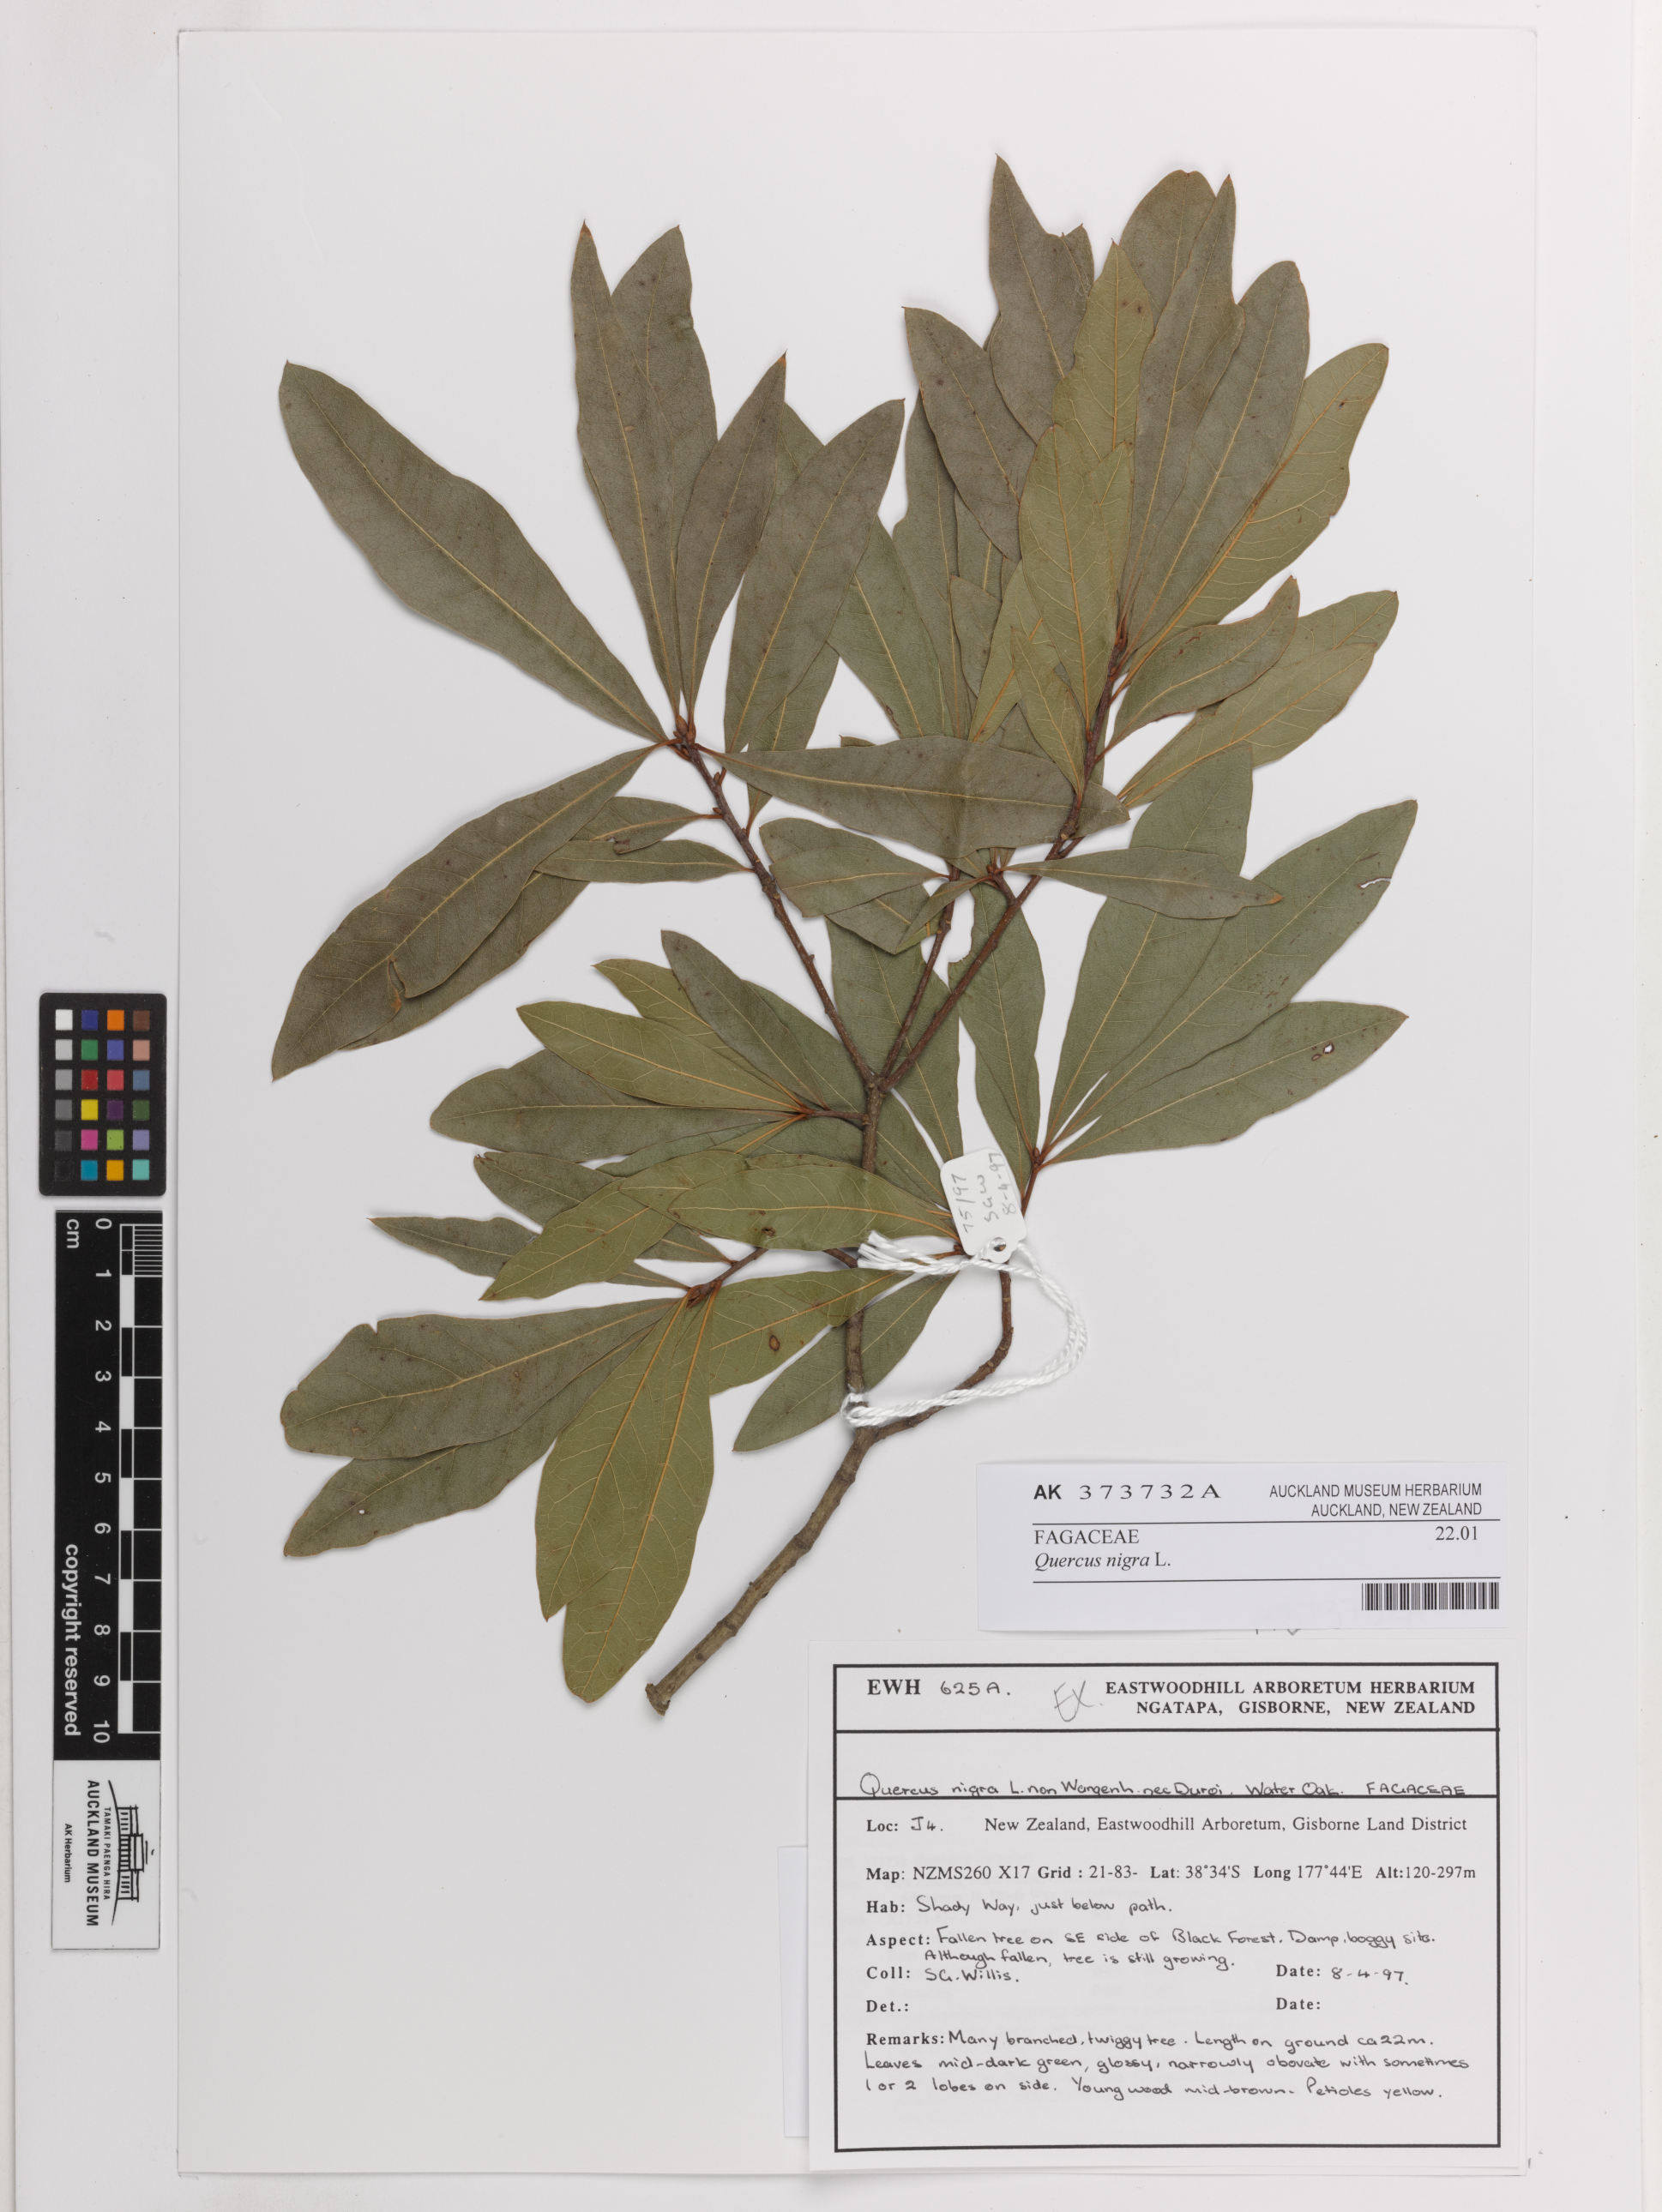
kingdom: Plantae
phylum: Tracheophyta
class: Magnoliopsida
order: Fagales
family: Fagaceae
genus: Quercus
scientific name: Quercus nigra
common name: Water oak
